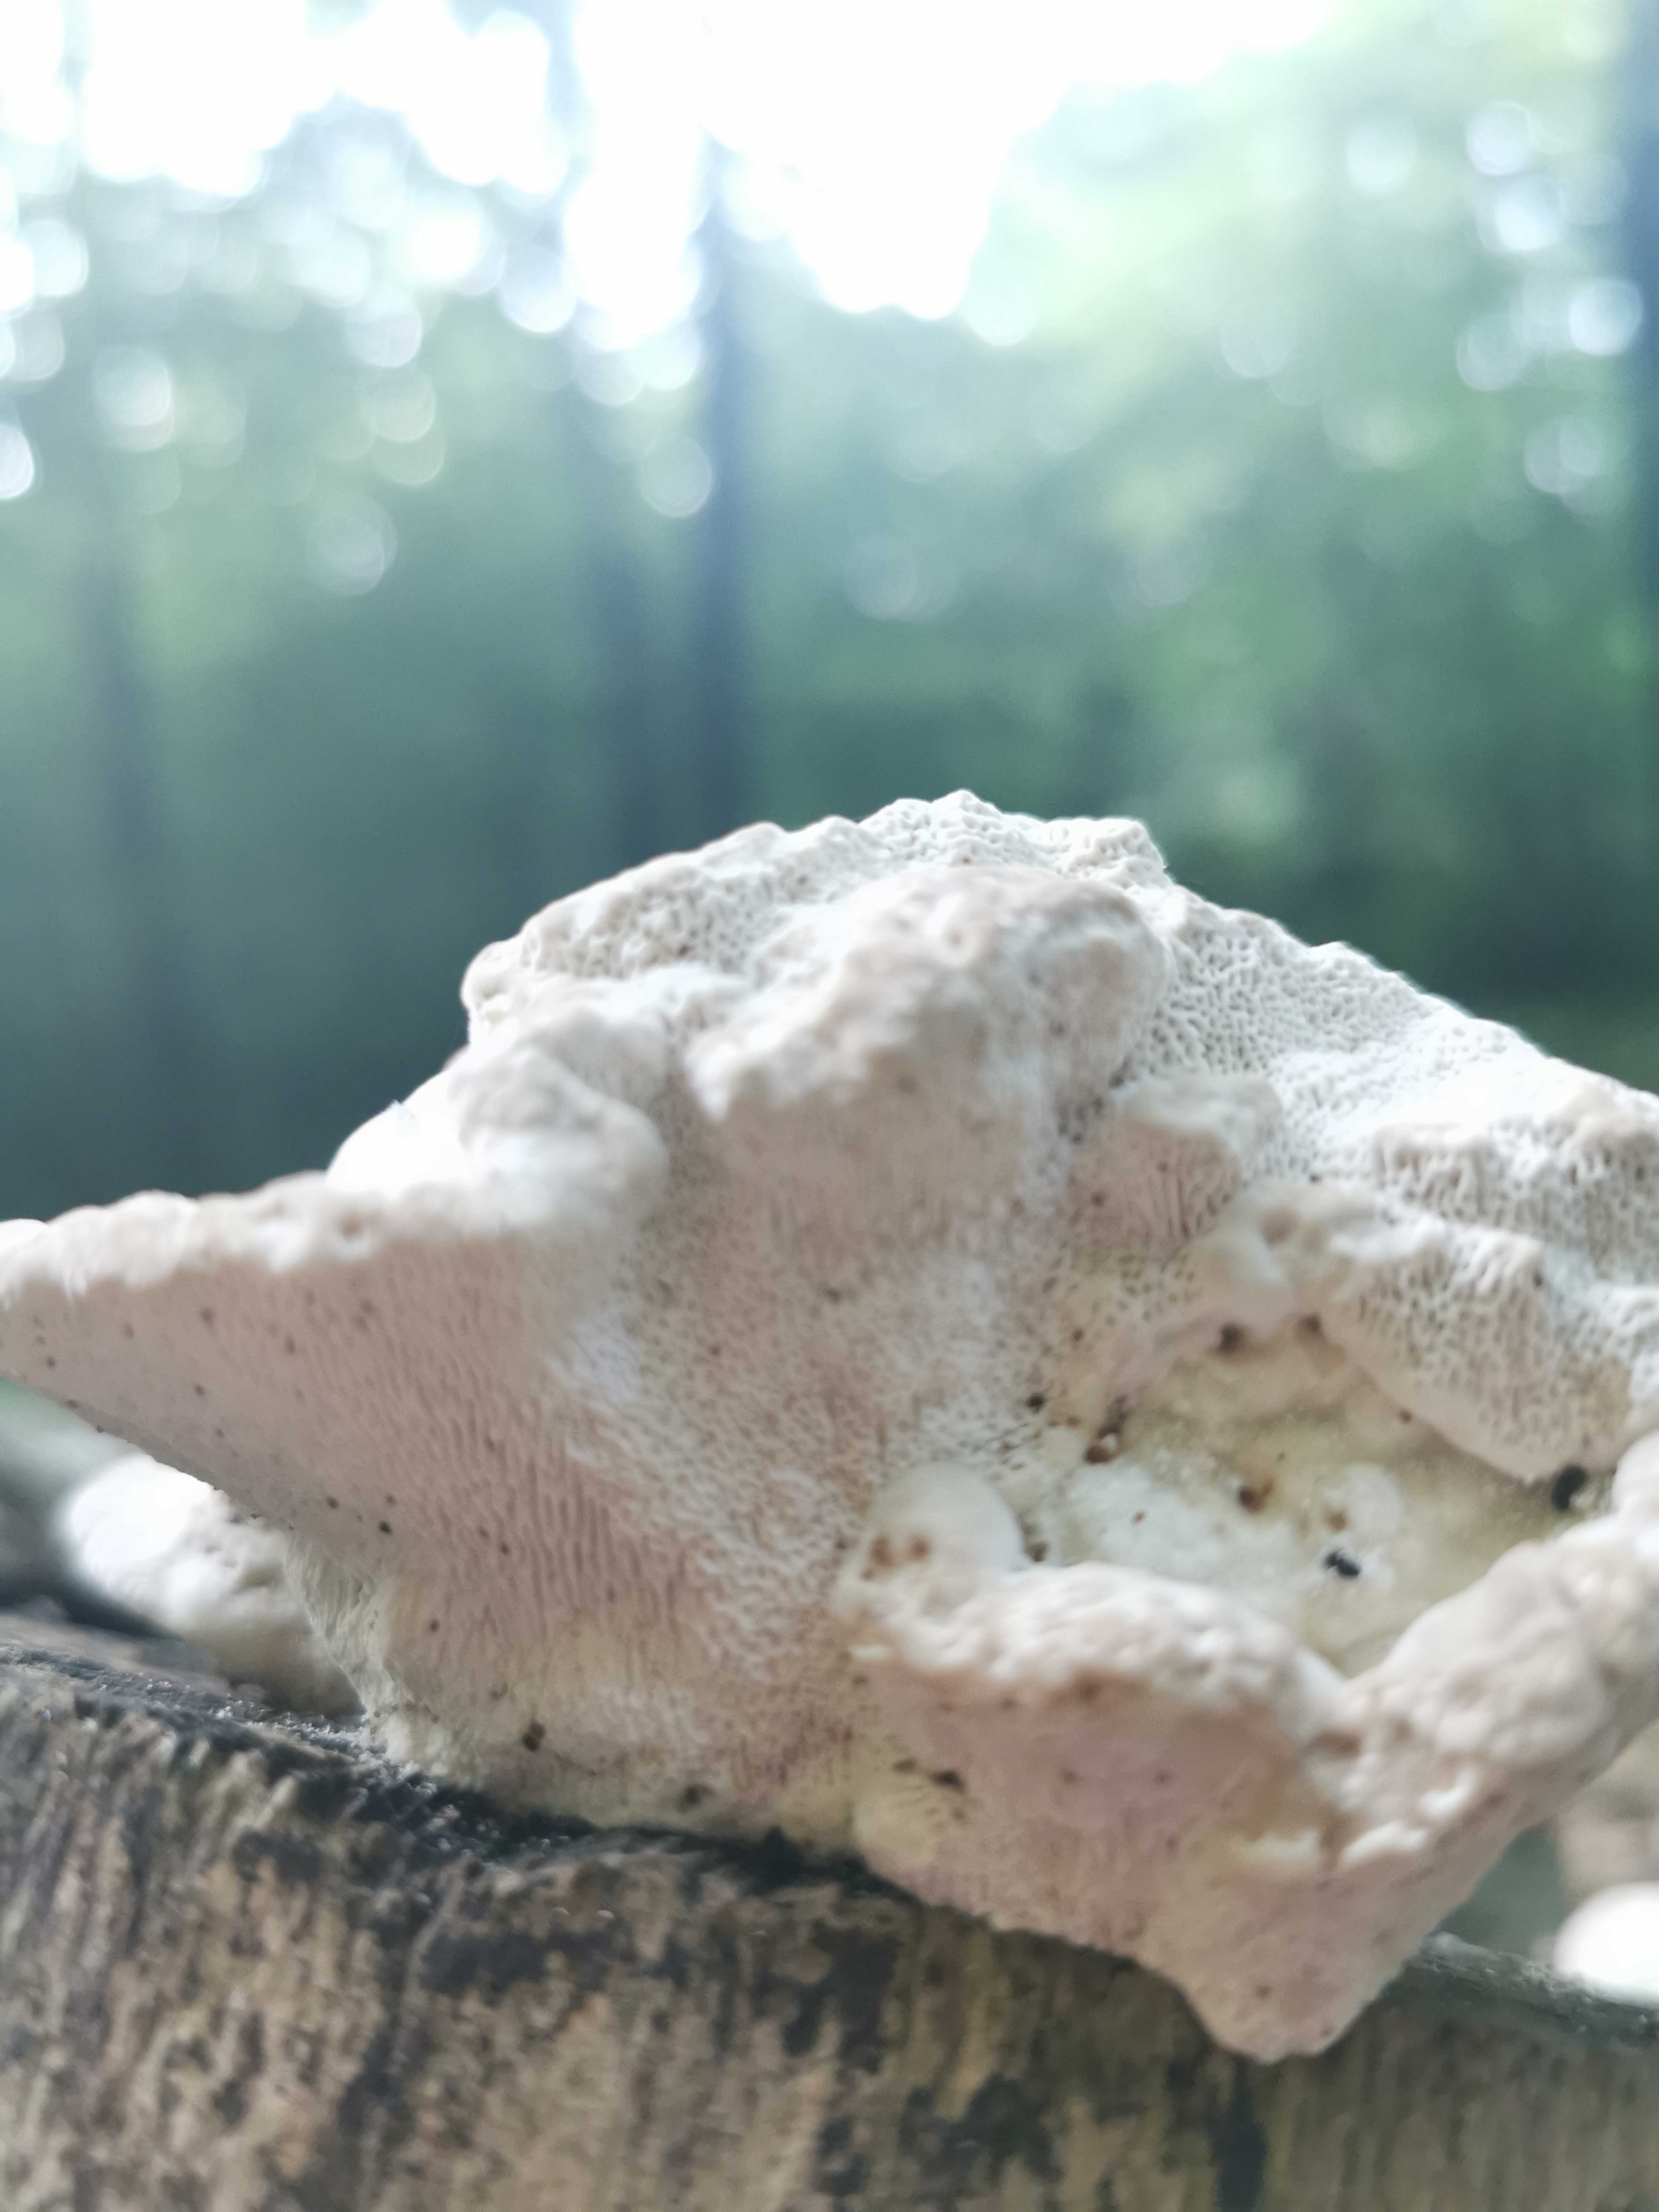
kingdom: Fungi
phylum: Basidiomycota
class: Agaricomycetes
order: Polyporales
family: Polyporaceae
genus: Trametes
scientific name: Trametes gibbosa
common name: puklet læderporesvamp
